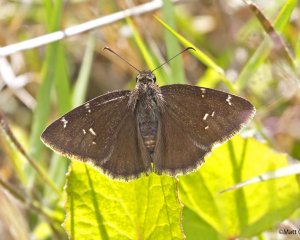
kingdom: Animalia
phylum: Arthropoda
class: Insecta
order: Lepidoptera
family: Hesperiidae
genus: Thorybes
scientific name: Thorybes mexicana
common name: Confused Cloudywing
